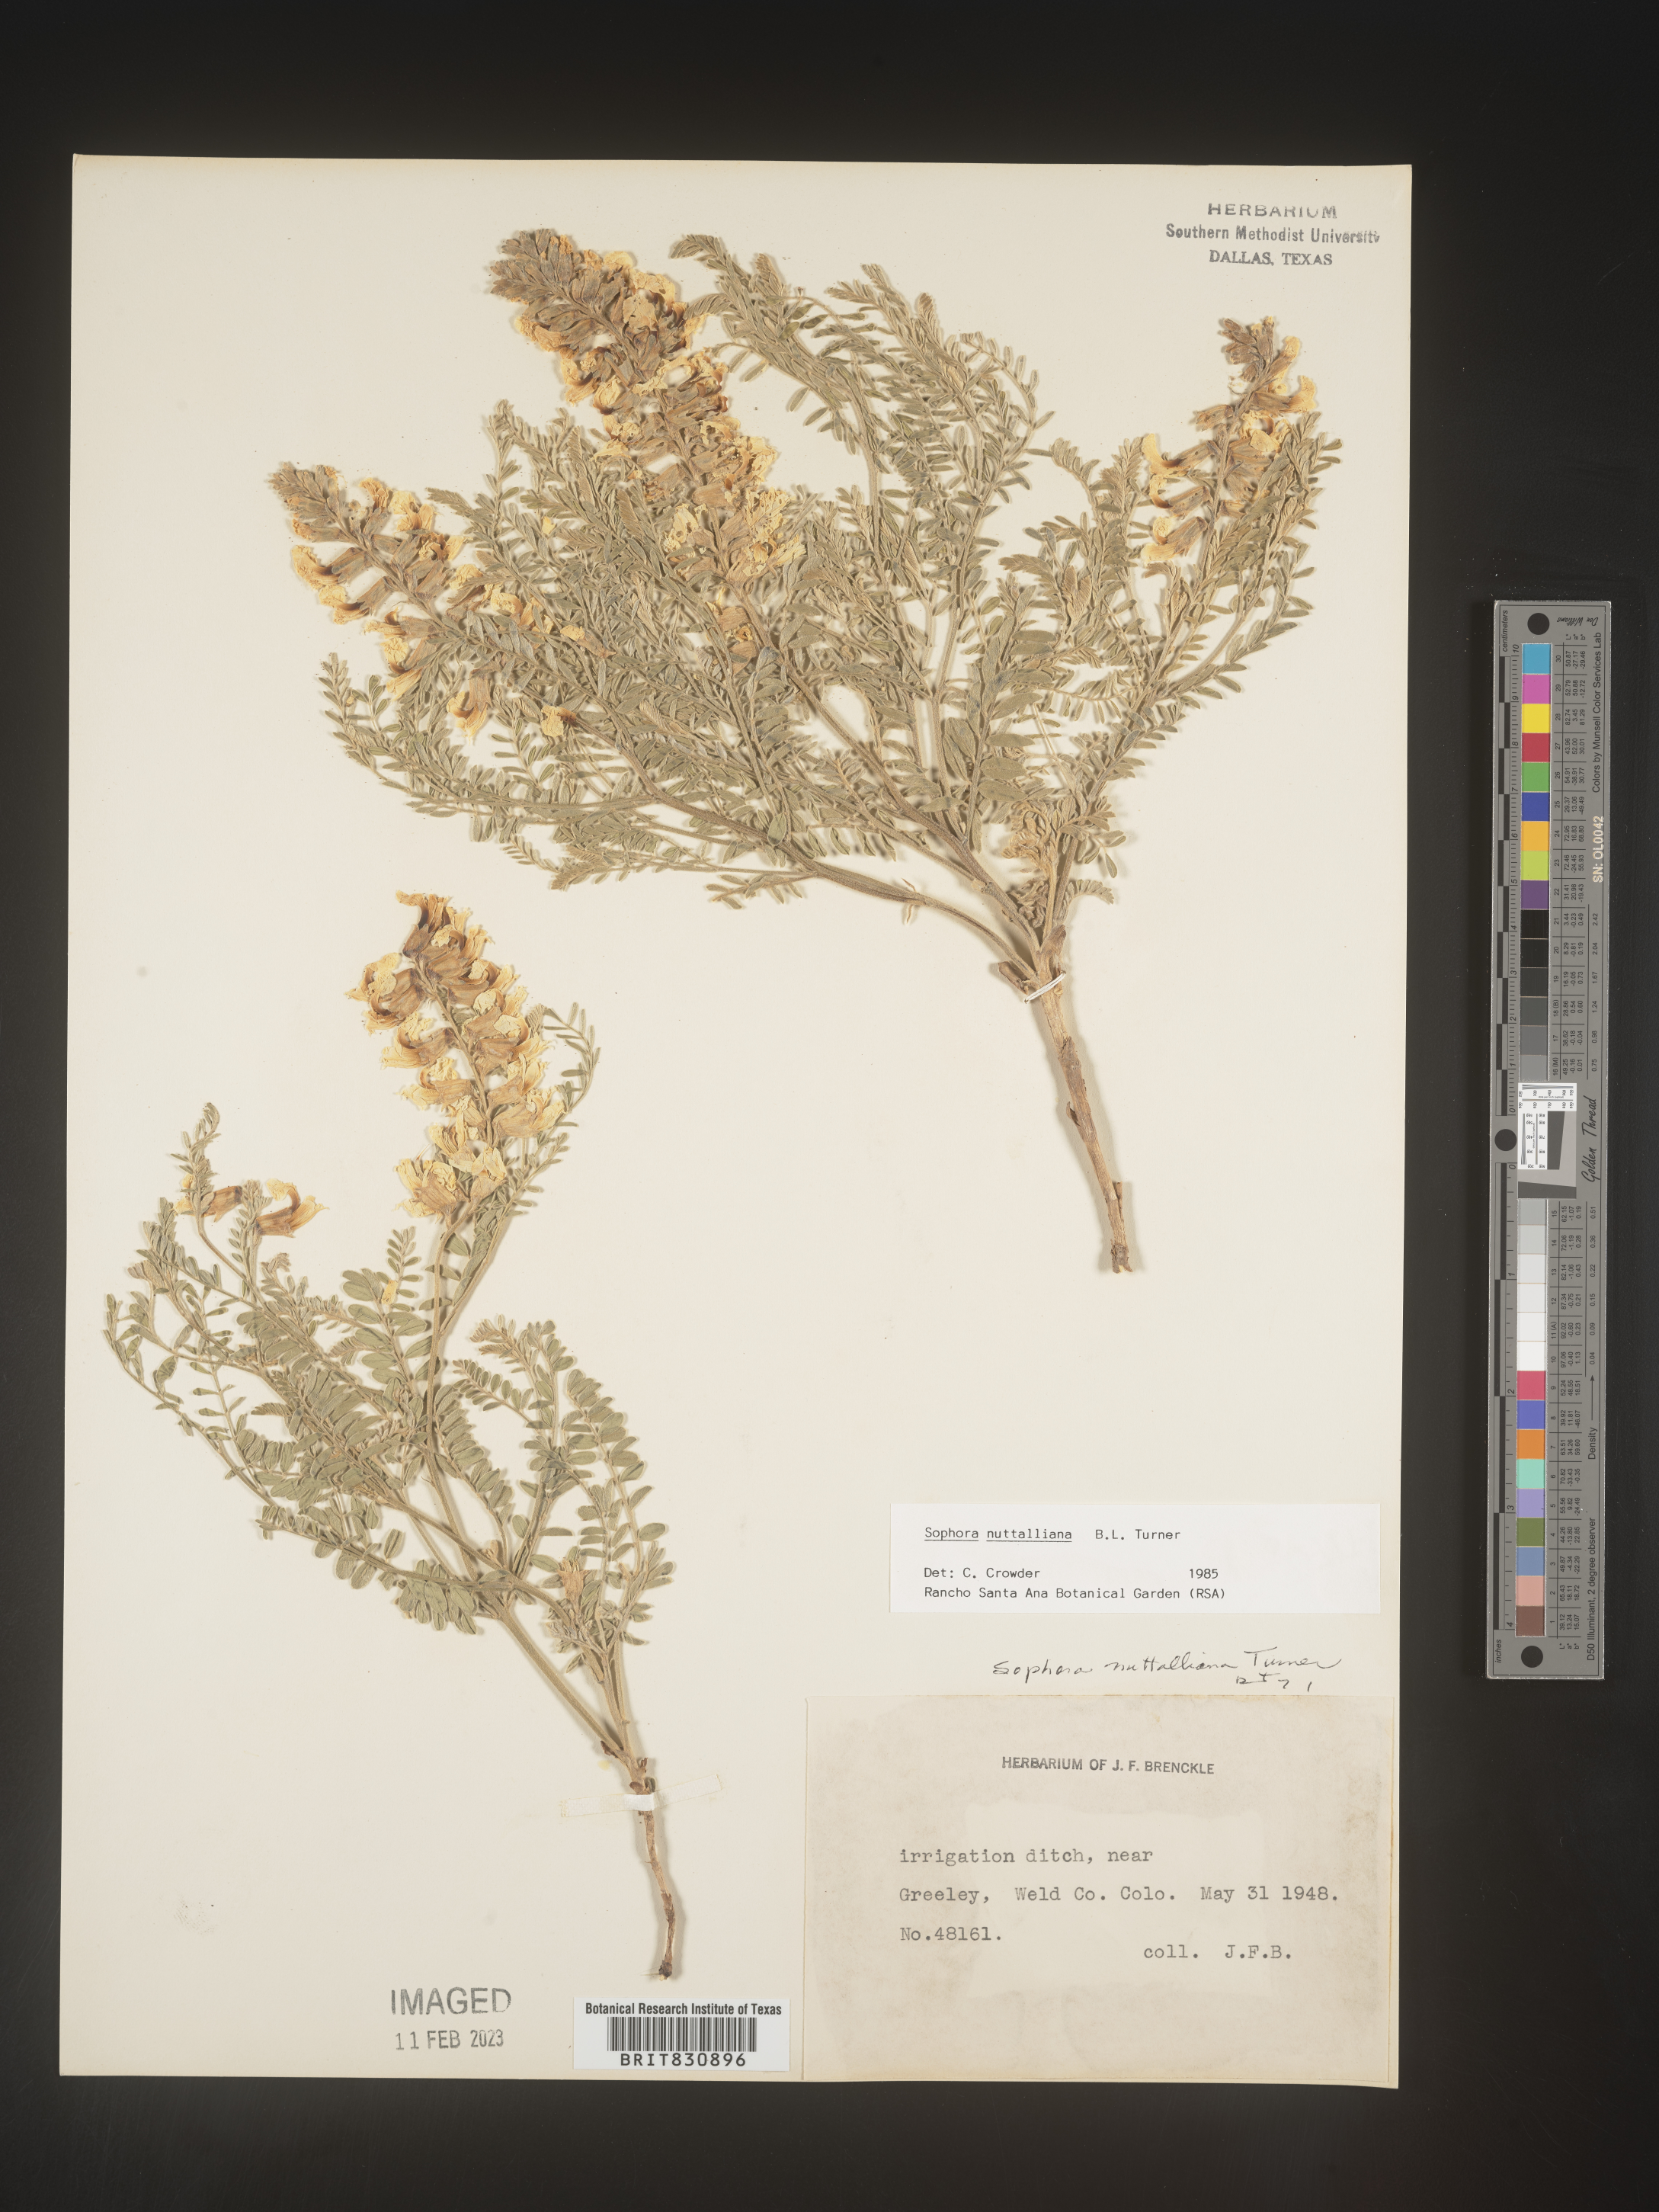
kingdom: Plantae
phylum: Tracheophyta
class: Magnoliopsida
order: Fabales
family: Fabaceae
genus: Sophora
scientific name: Sophora nuttalliana
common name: Silky sophora
